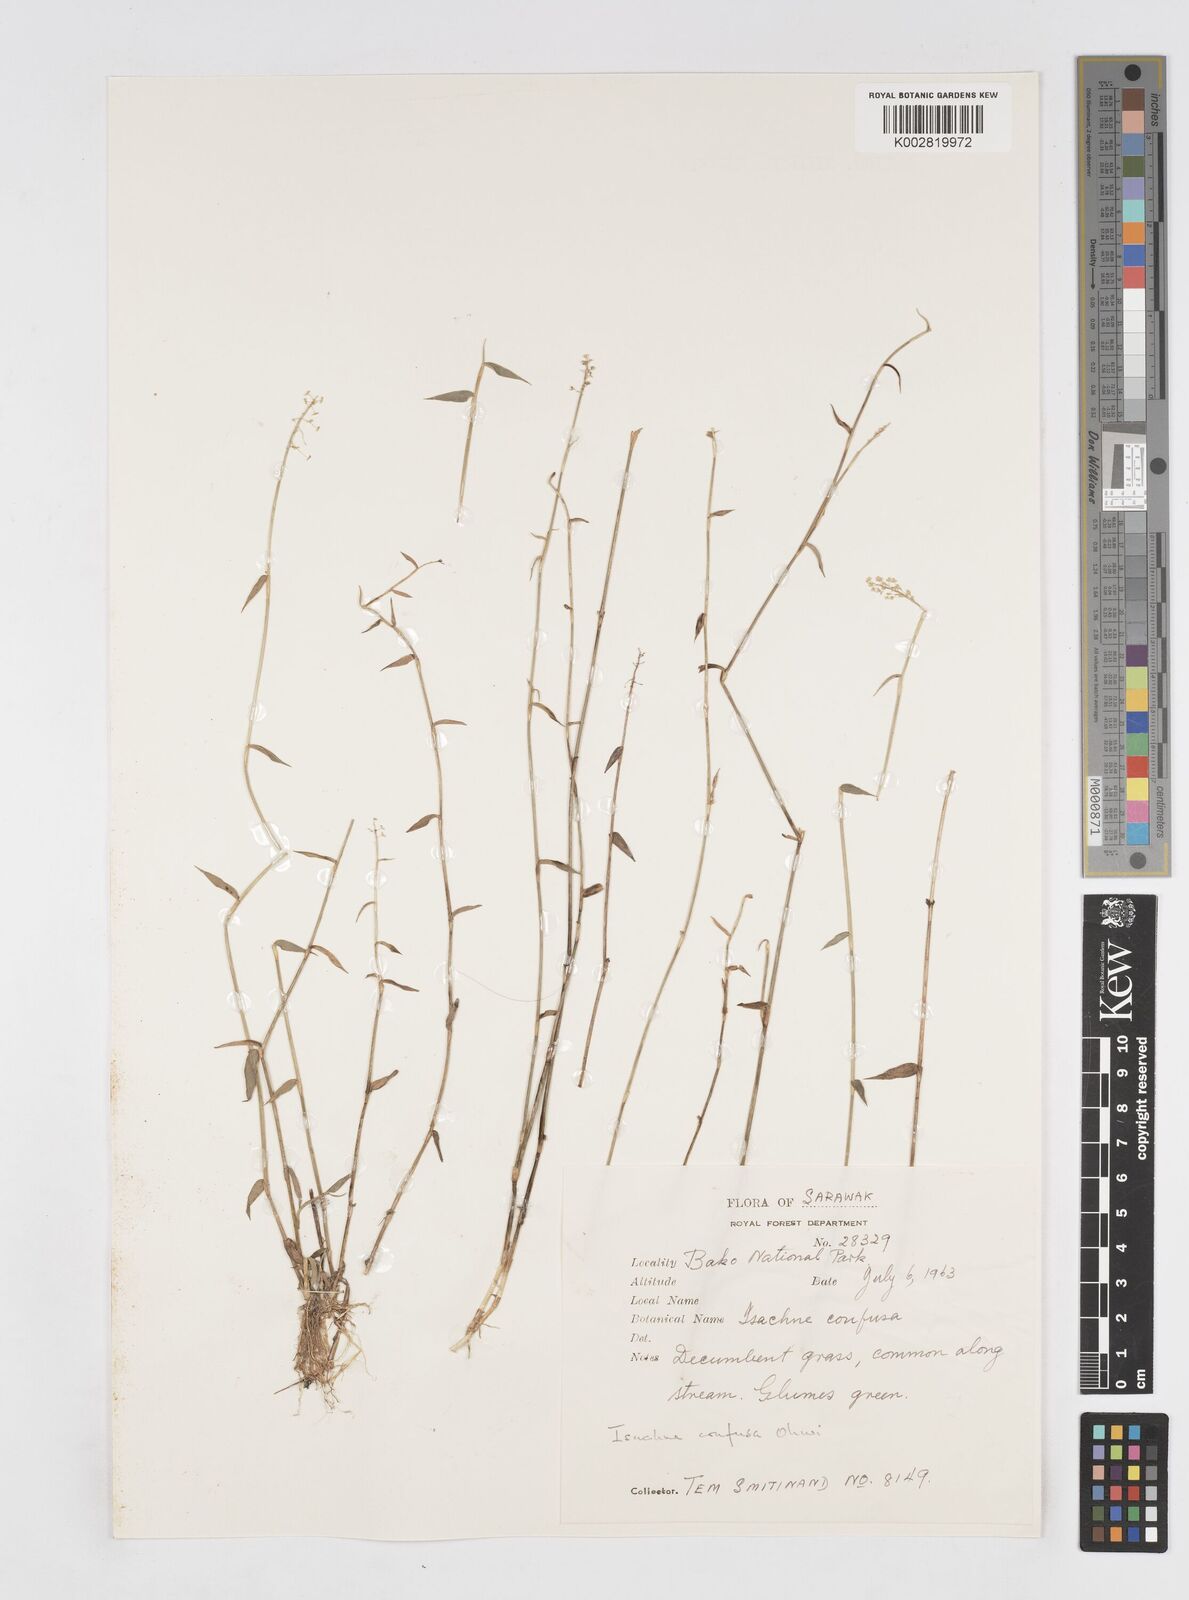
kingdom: Plantae
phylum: Tracheophyta
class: Liliopsida
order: Poales
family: Poaceae
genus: Isachne
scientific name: Isachne confusa
